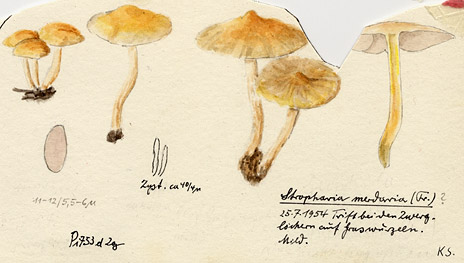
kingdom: Fungi
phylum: Basidiomycota
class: Agaricomycetes
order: Agaricales
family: Strophariaceae
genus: Deconica
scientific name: Deconica merdaria
